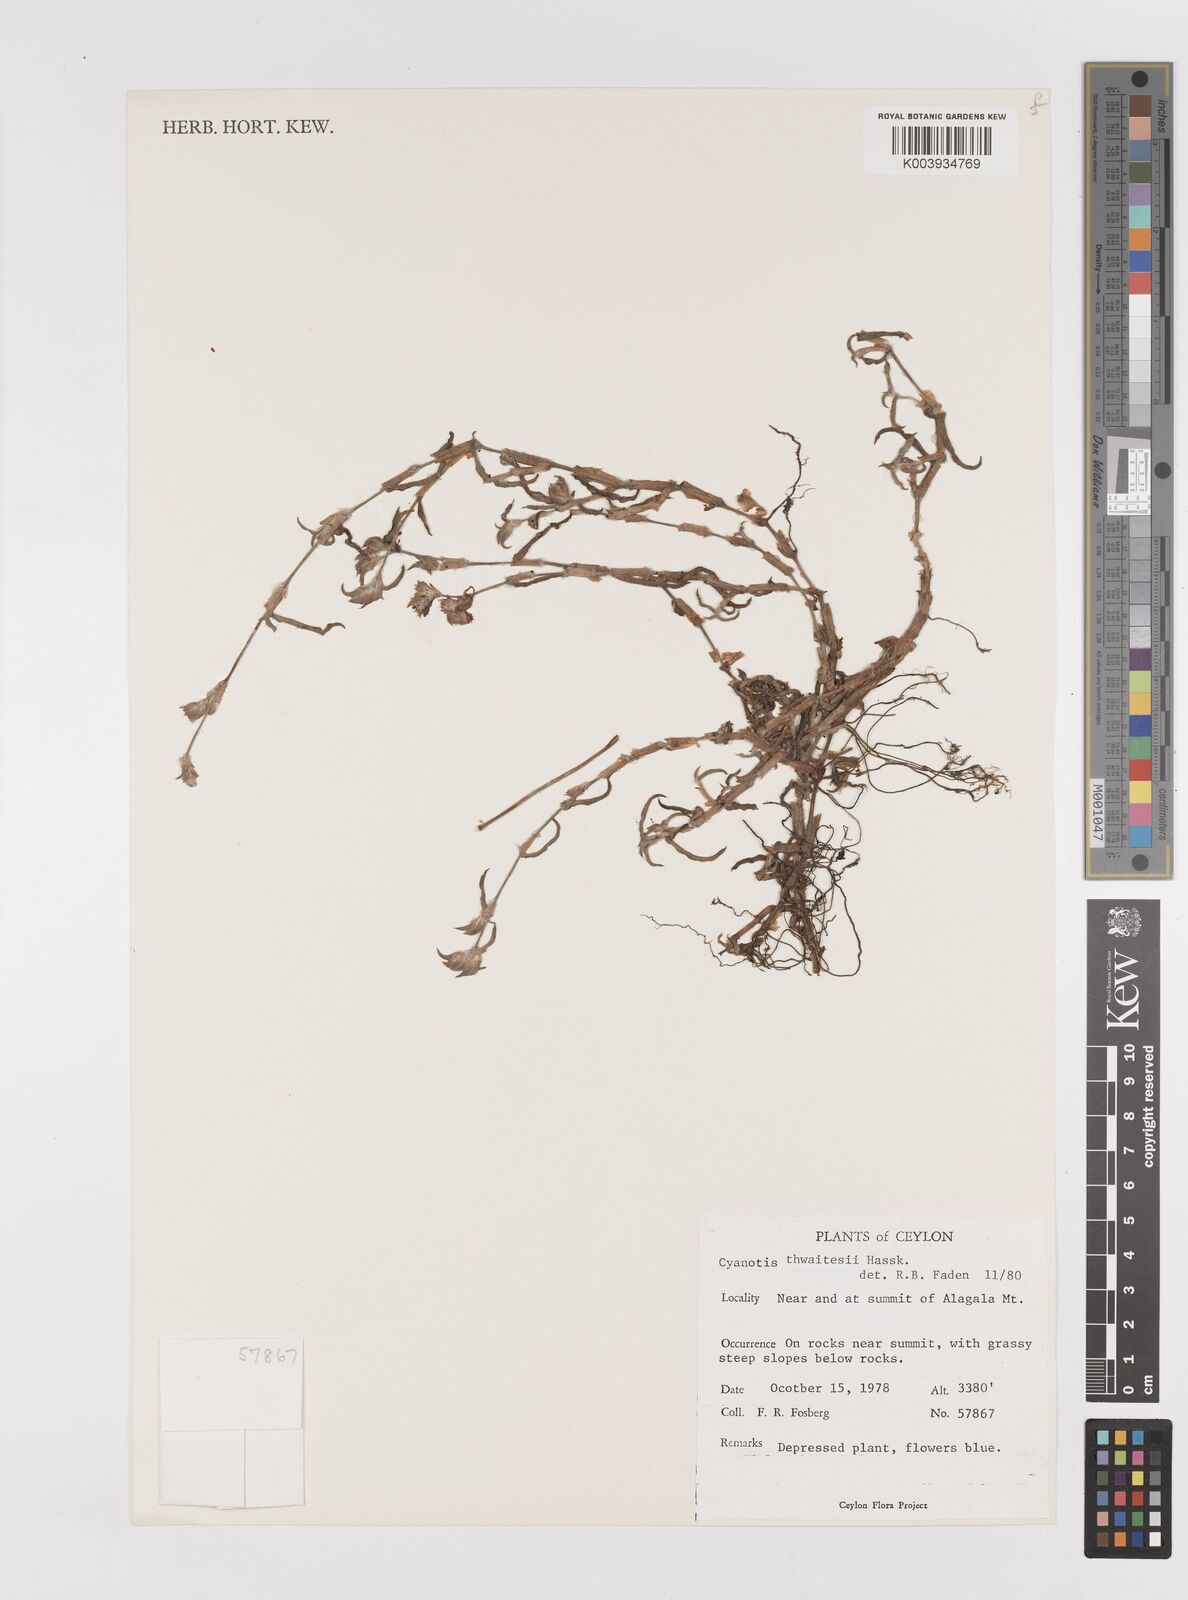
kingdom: Plantae
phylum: Tracheophyta
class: Liliopsida
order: Commelinales
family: Commelinaceae
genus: Cyanotis
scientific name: Cyanotis fasciculata
